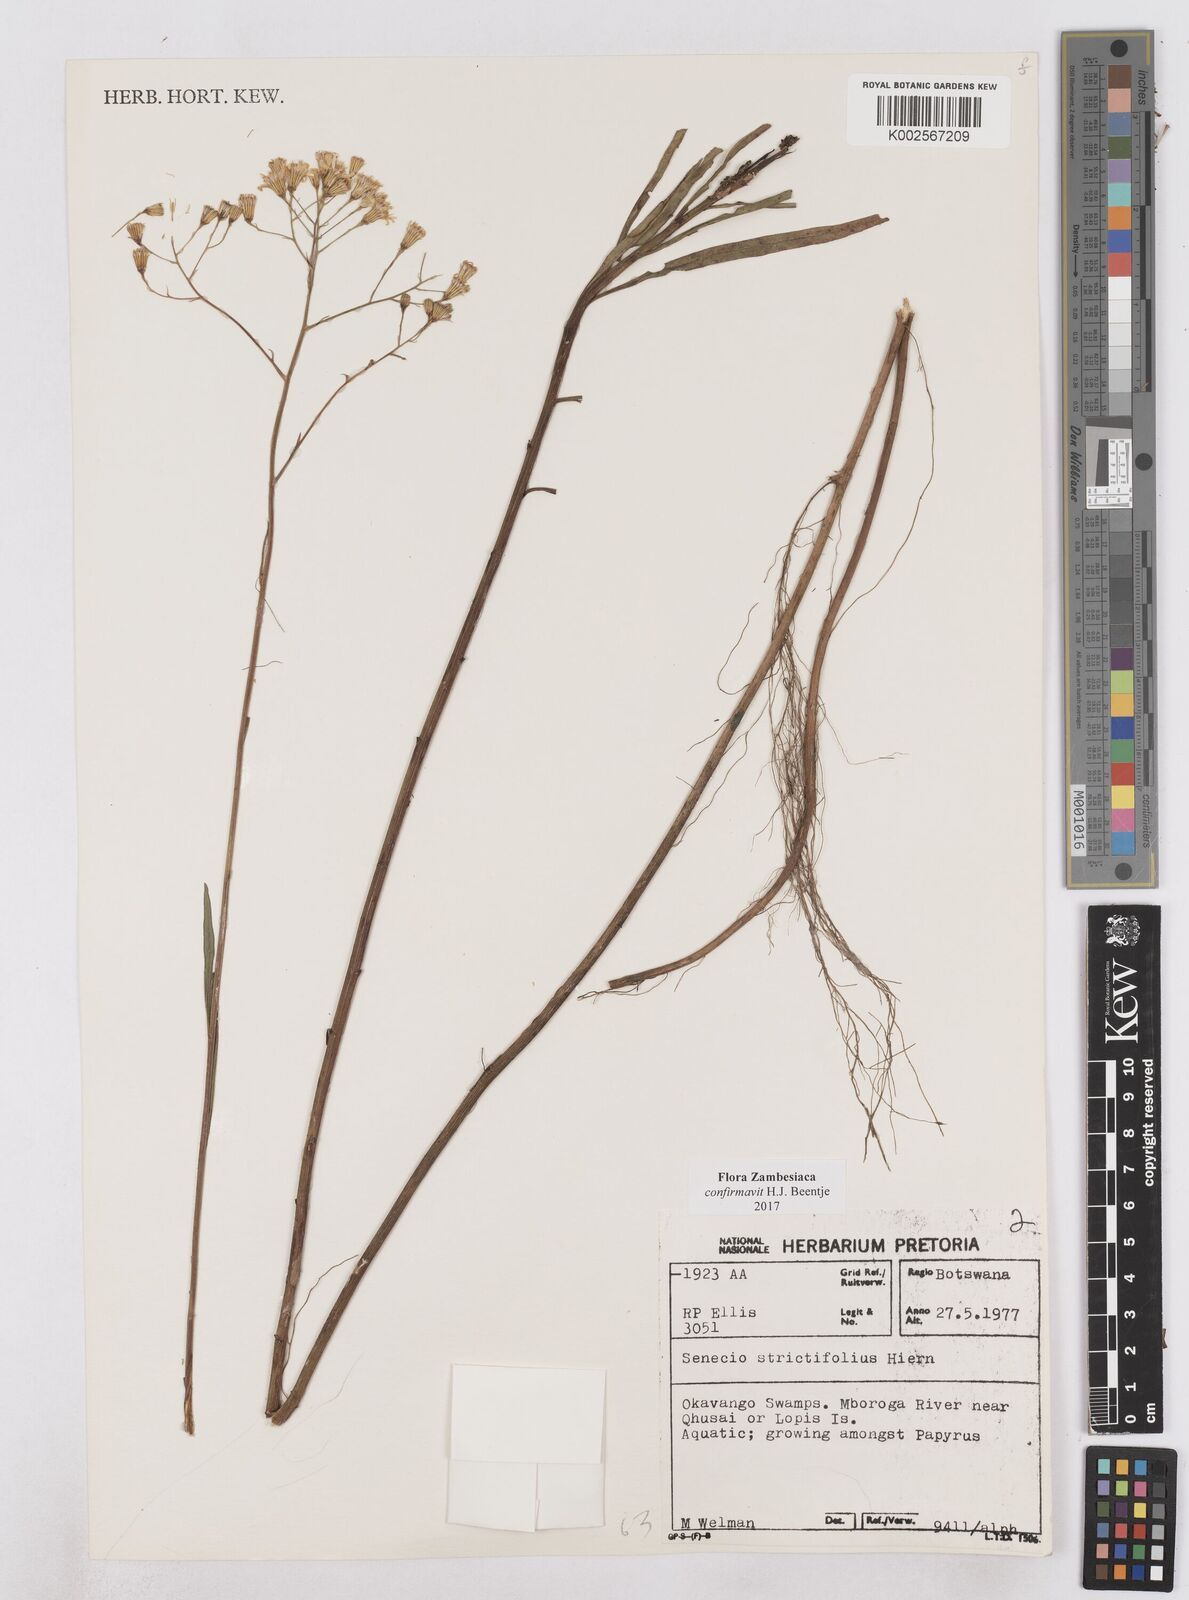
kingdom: Plantae
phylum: Tracheophyta
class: Magnoliopsida
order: Asterales
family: Asteraceae
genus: Senecio
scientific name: Senecio strictifolius
